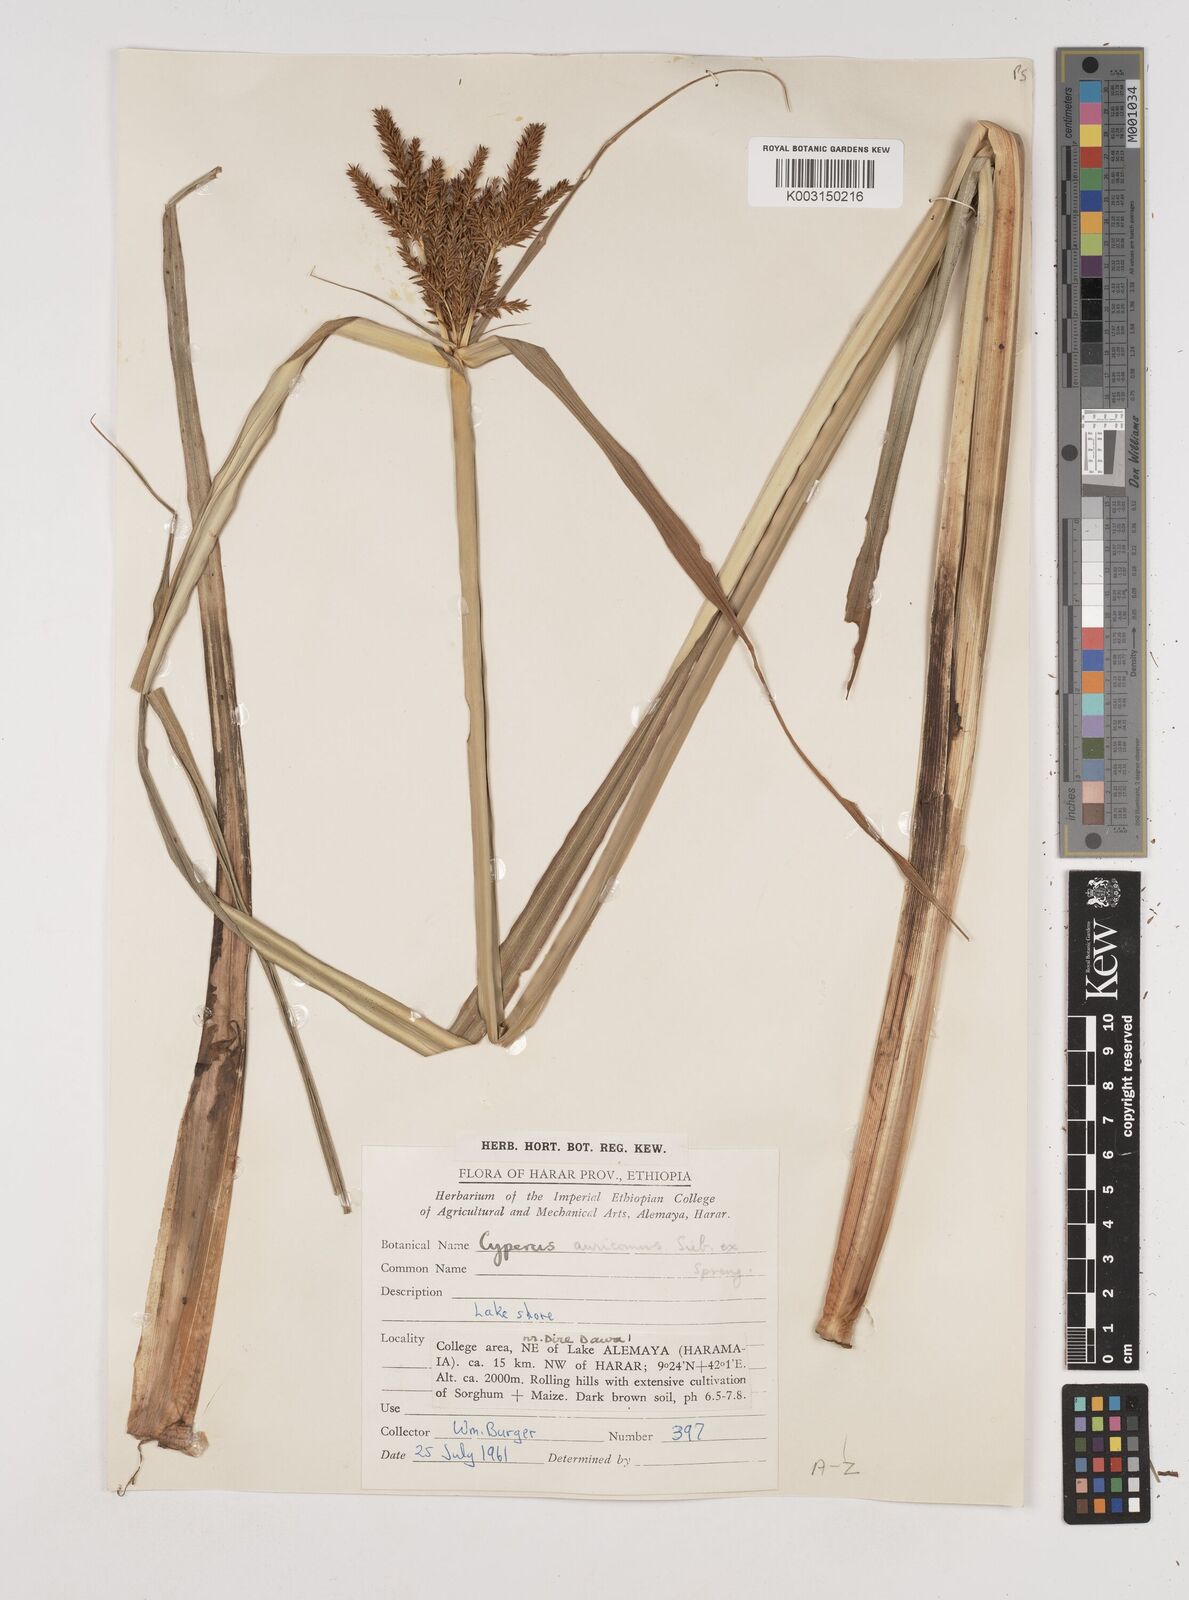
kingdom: Plantae
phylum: Tracheophyta
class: Liliopsida
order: Poales
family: Cyperaceae
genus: Cyperus
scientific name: Cyperus digitatus
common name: Finger flatsedge
